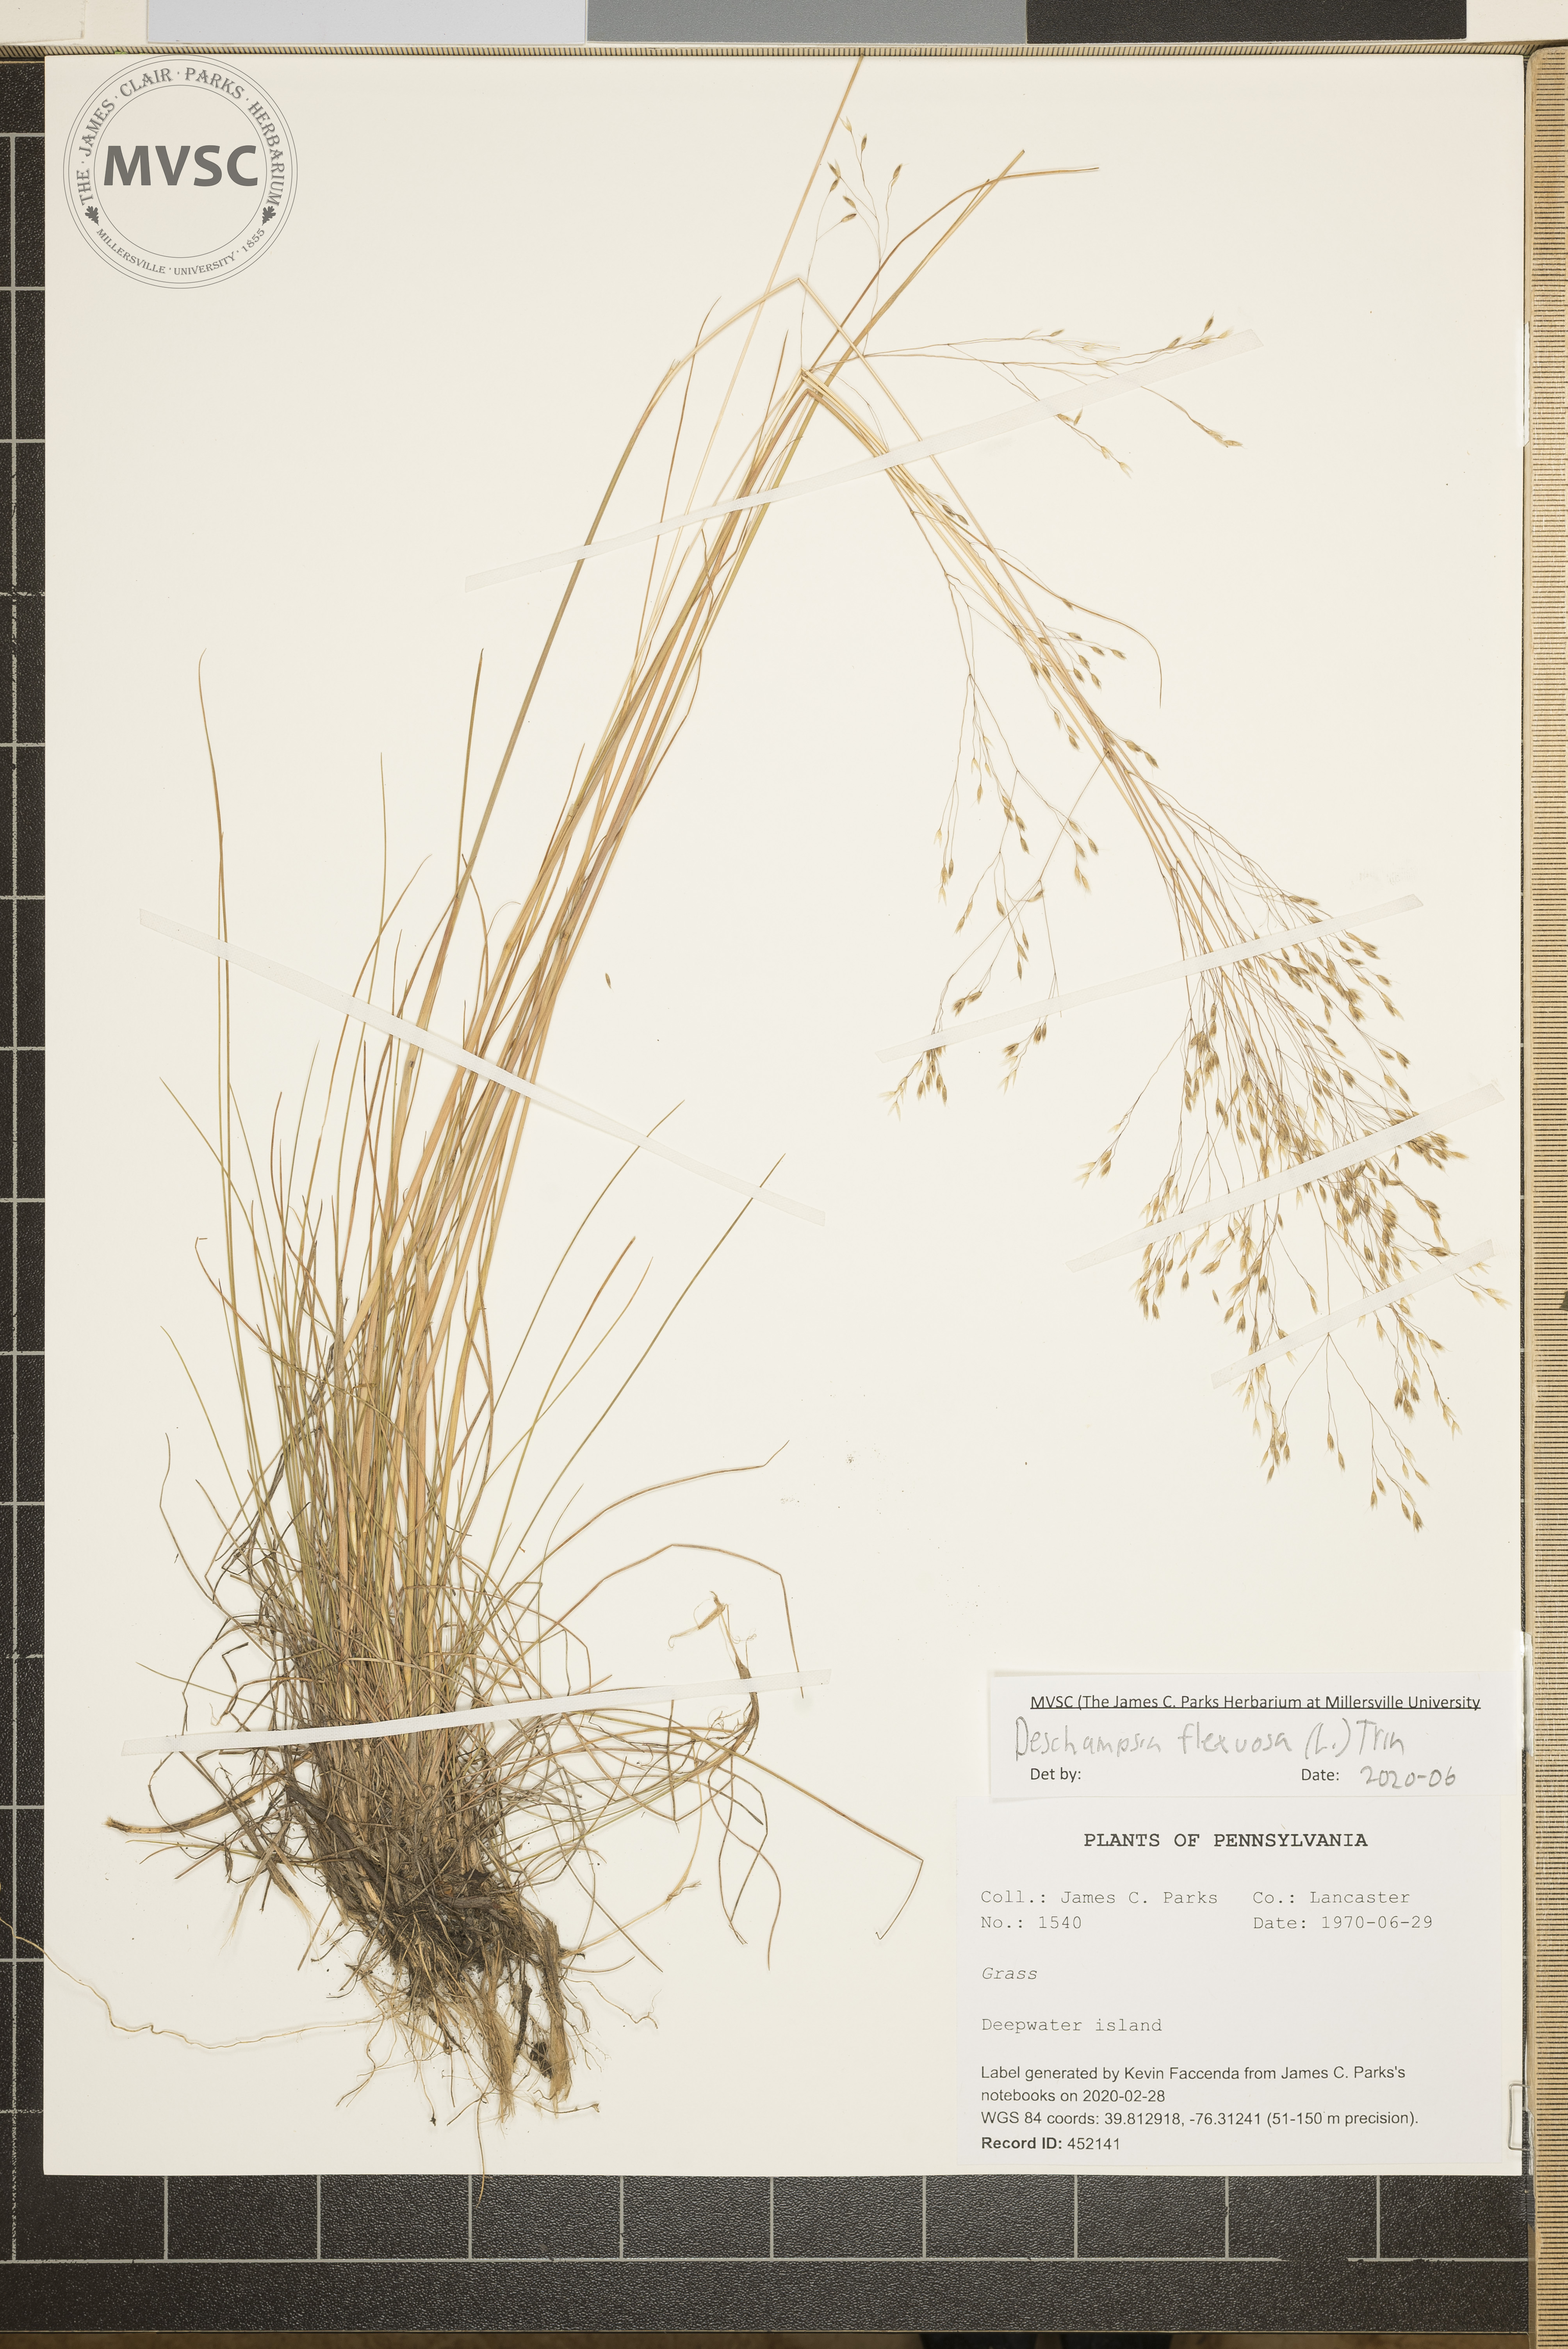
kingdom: Plantae
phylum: Tracheophyta
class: Liliopsida
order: Poales
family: Poaceae
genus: Avenella
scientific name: Avenella flexuosa
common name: Wavy hairgrass
